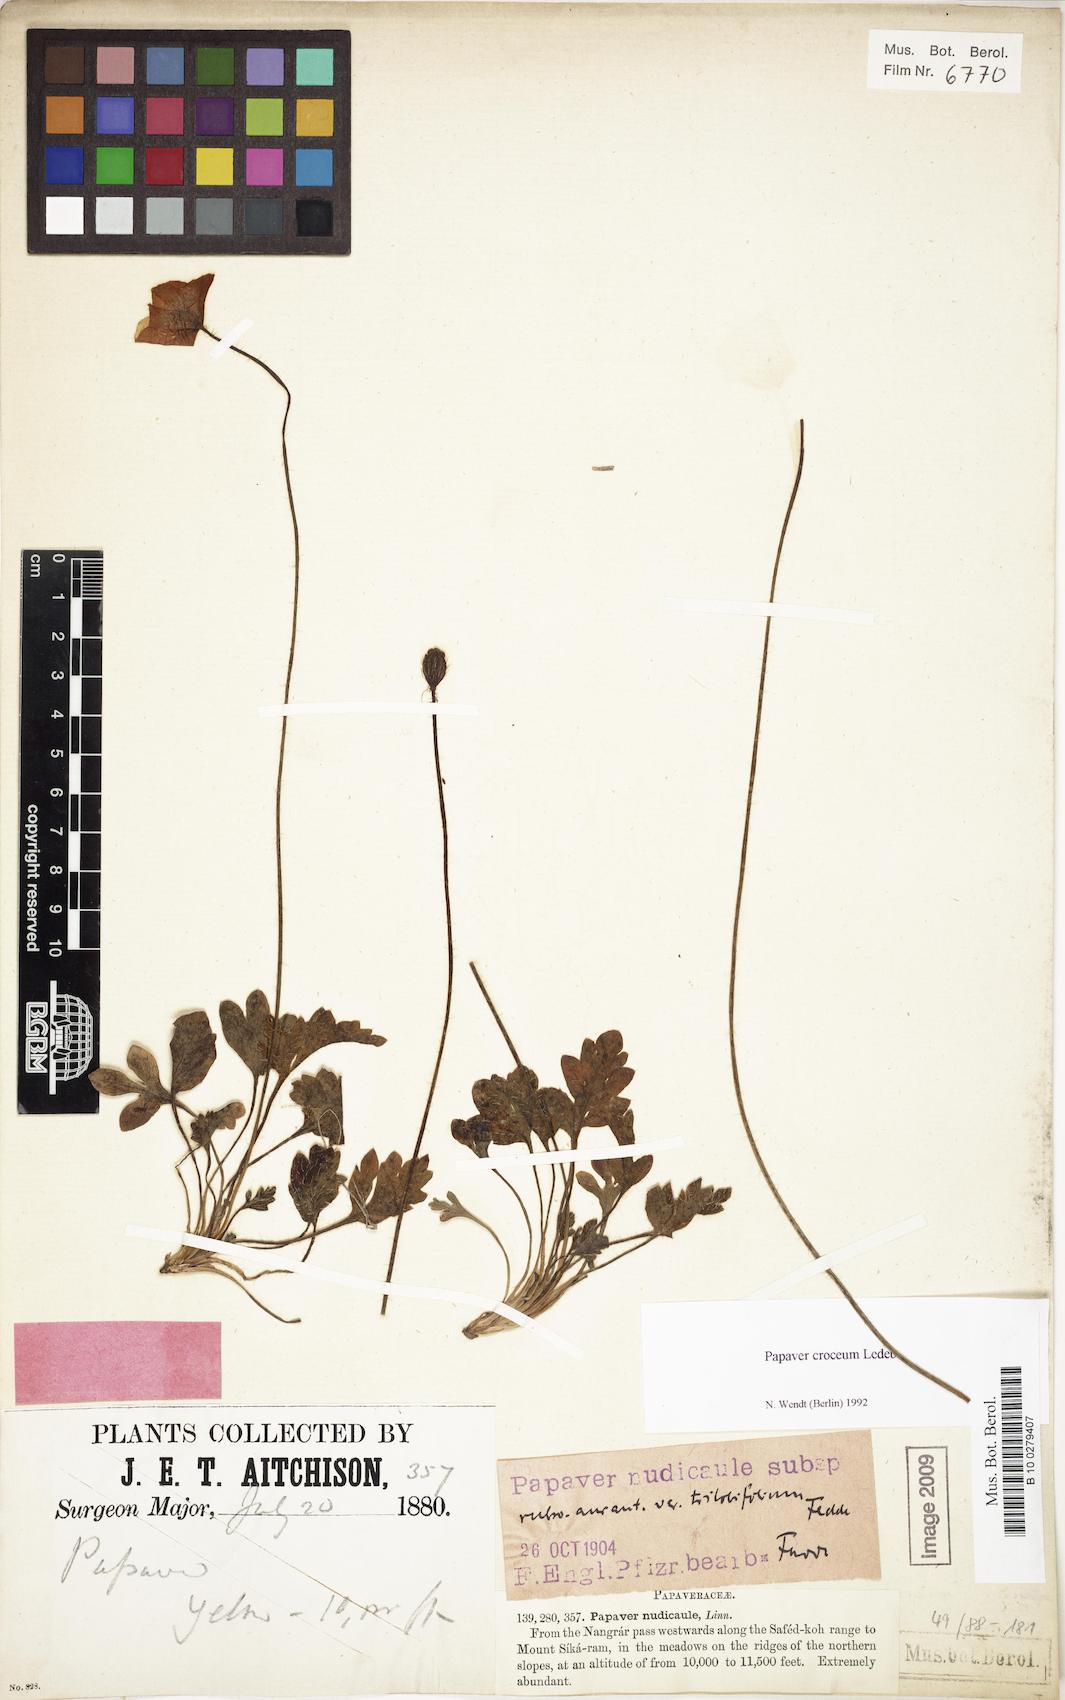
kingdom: Plantae
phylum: Tracheophyta
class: Magnoliopsida
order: Ranunculales
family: Papaveraceae
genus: Papaver
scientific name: Papaver croceum
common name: Siberian poppy
